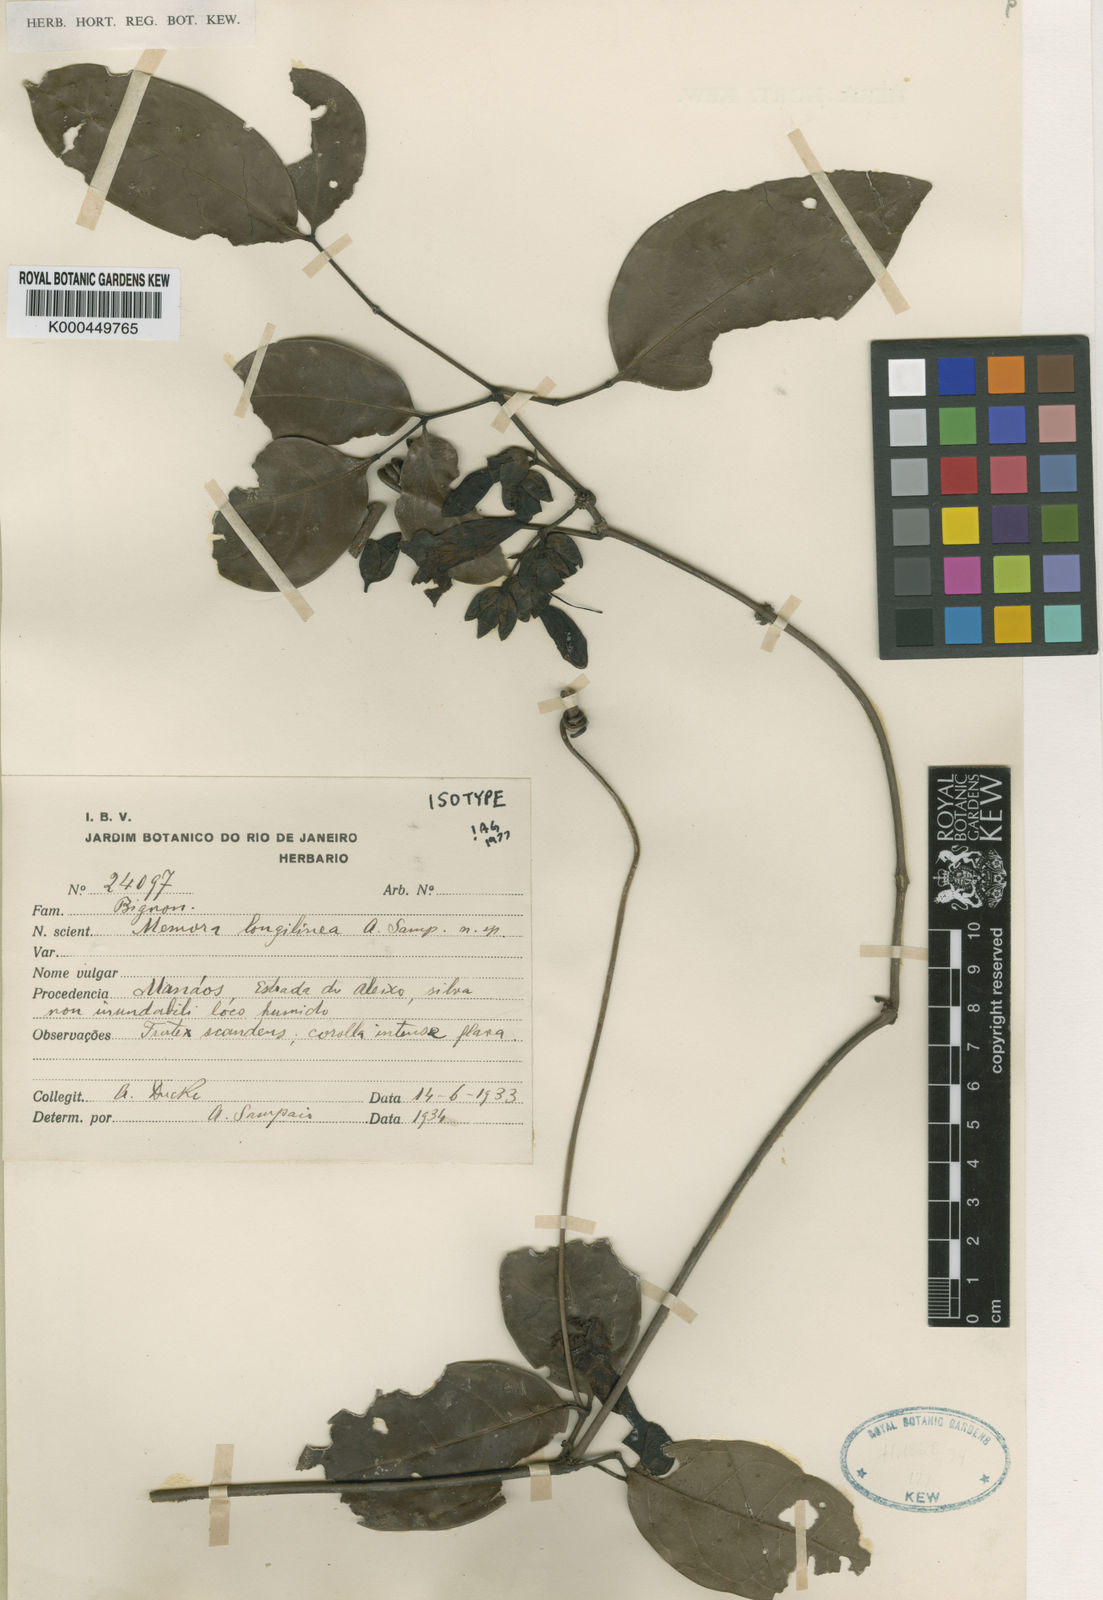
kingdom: Plantae
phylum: Tracheophyta
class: Magnoliopsida
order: Lamiales
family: Bignoniaceae
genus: Adenocalymma
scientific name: Adenocalymma longilineum
